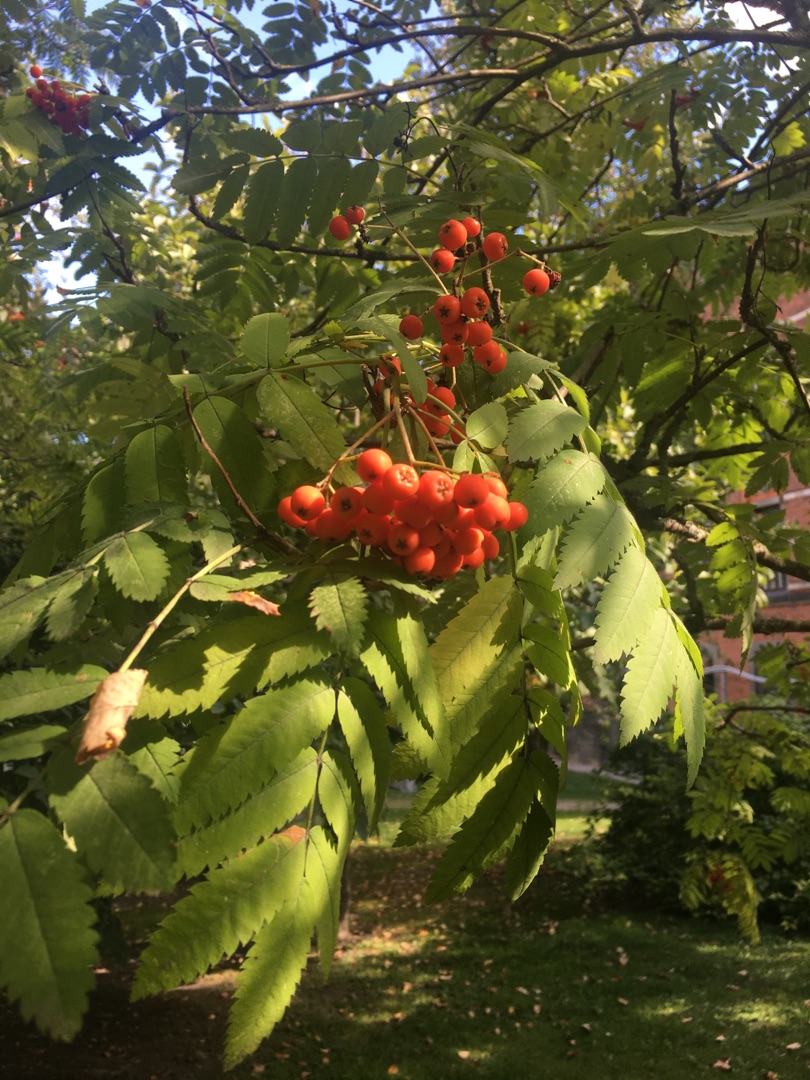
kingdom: Plantae
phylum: Tracheophyta
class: Magnoliopsida
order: Rosales
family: Rosaceae
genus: Sorbus
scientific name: Sorbus aucuparia
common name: Almindelig røn
